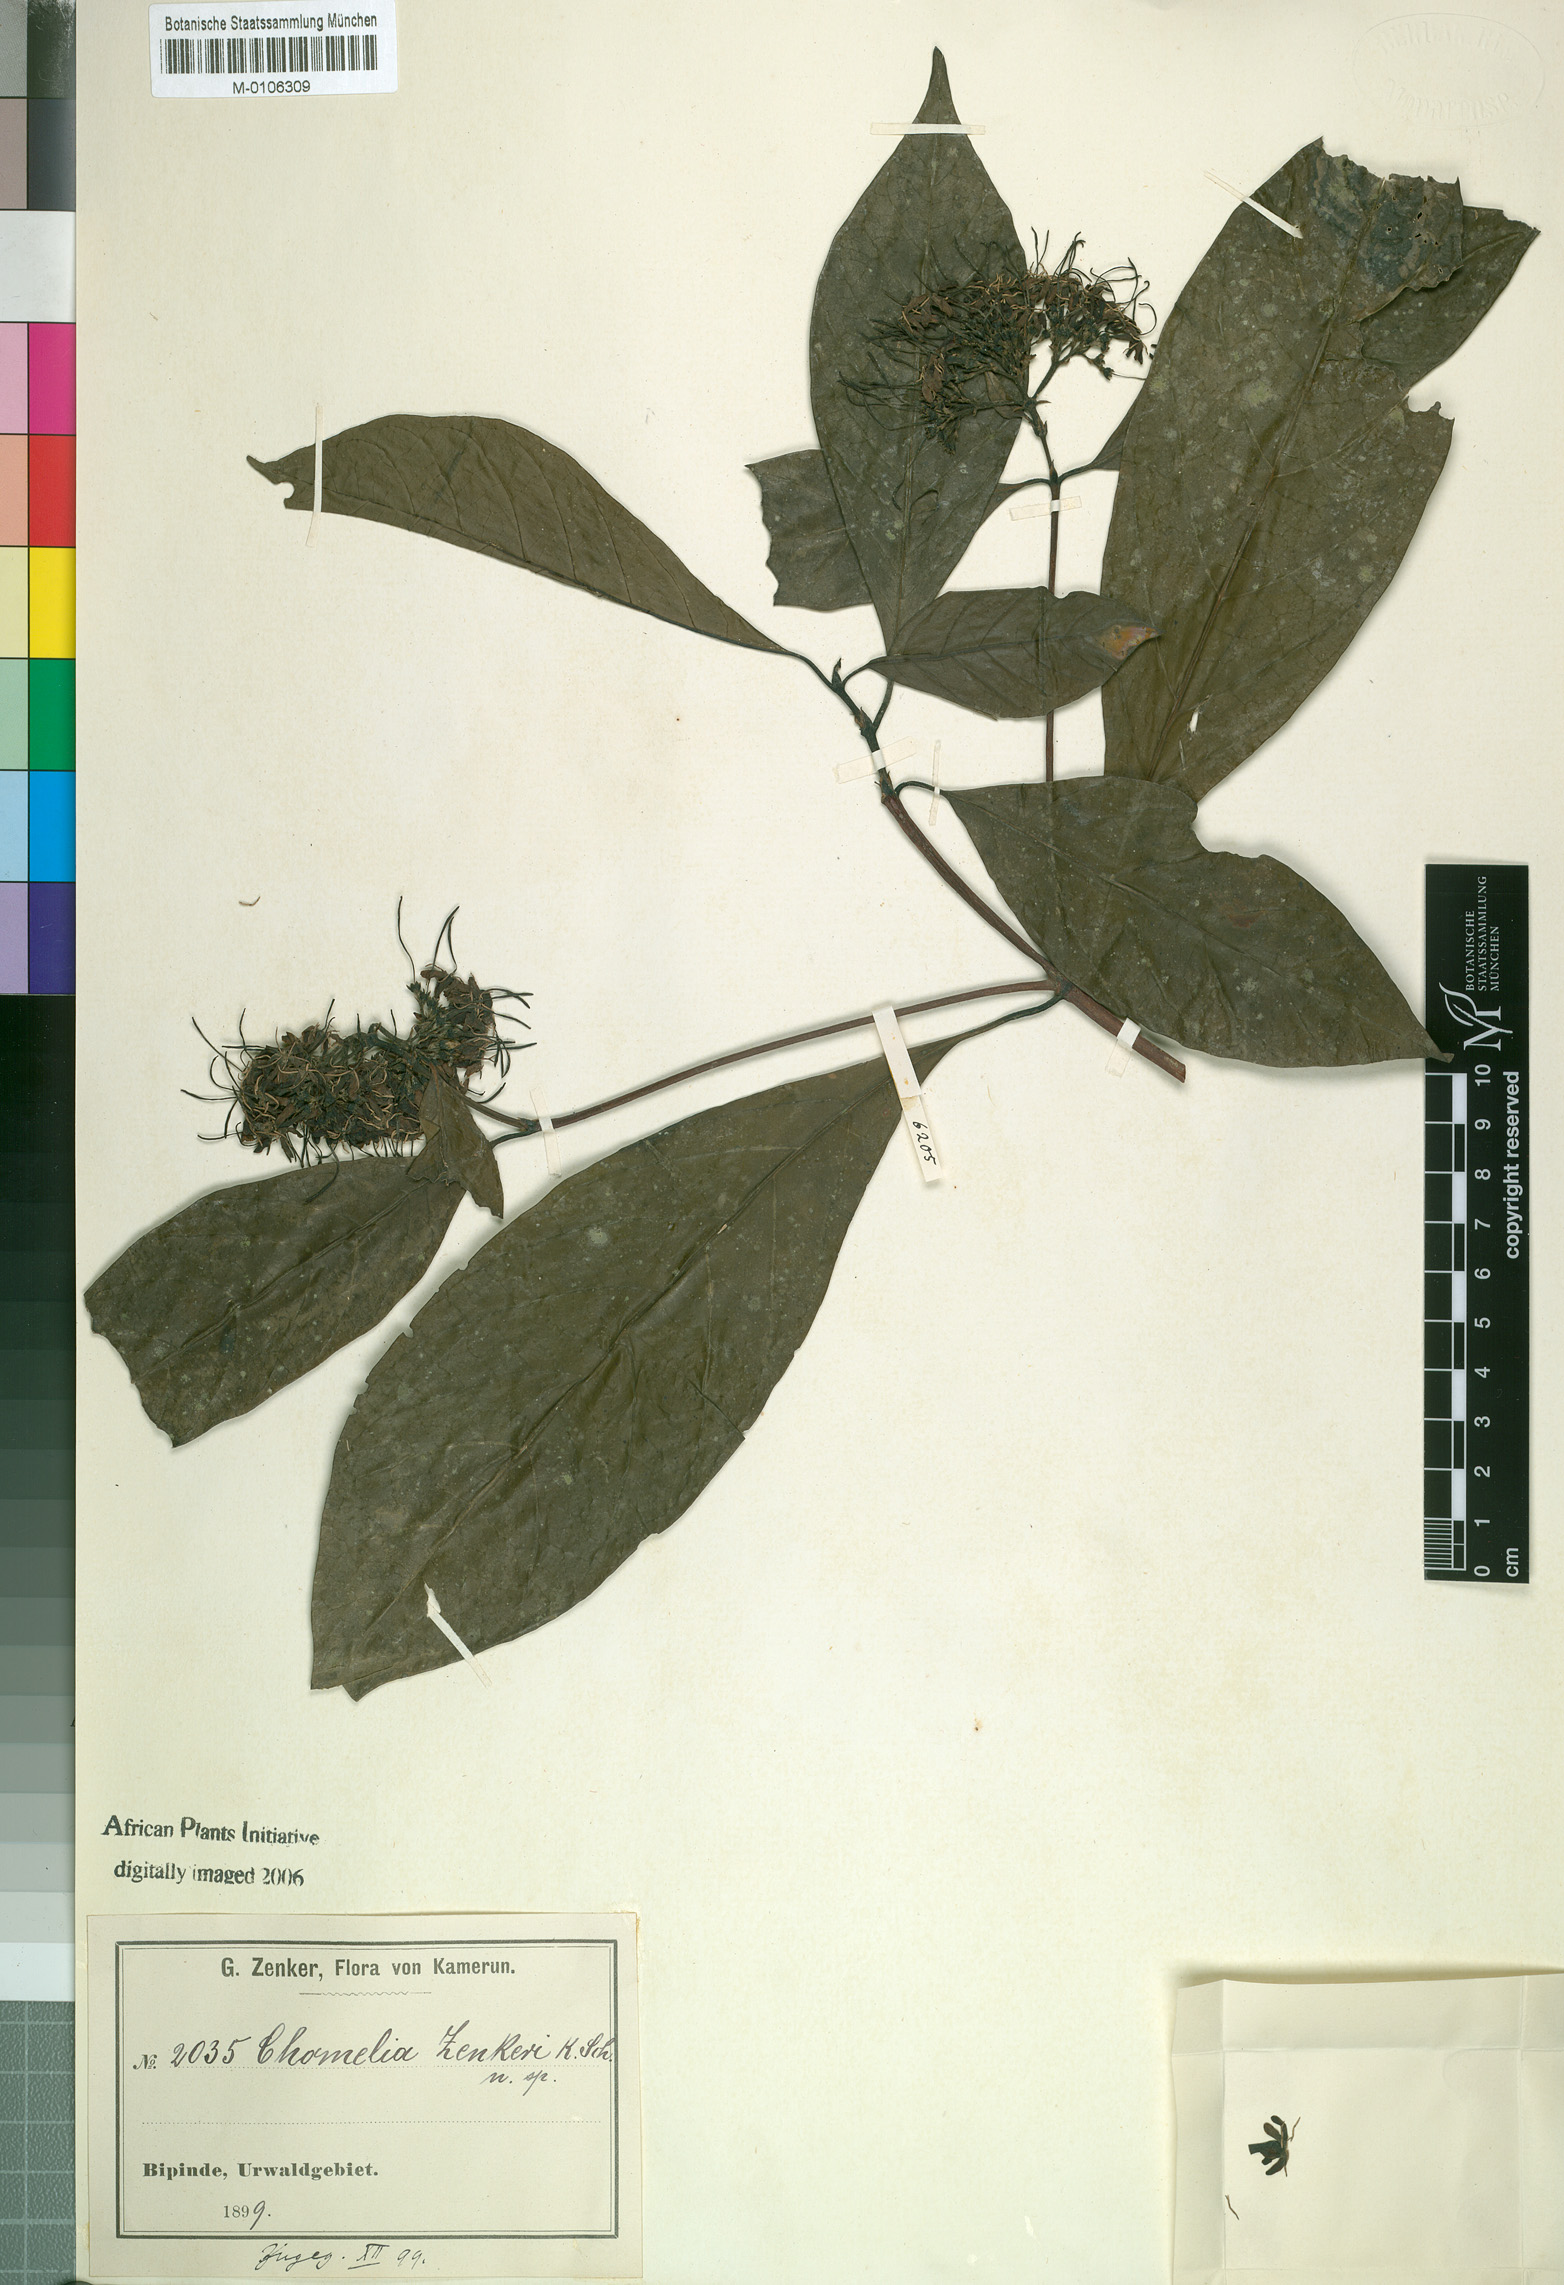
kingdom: Plantae
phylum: Tracheophyta
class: Magnoliopsida
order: Gentianales
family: Rubiaceae
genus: Chomelia
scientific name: Chomelia
